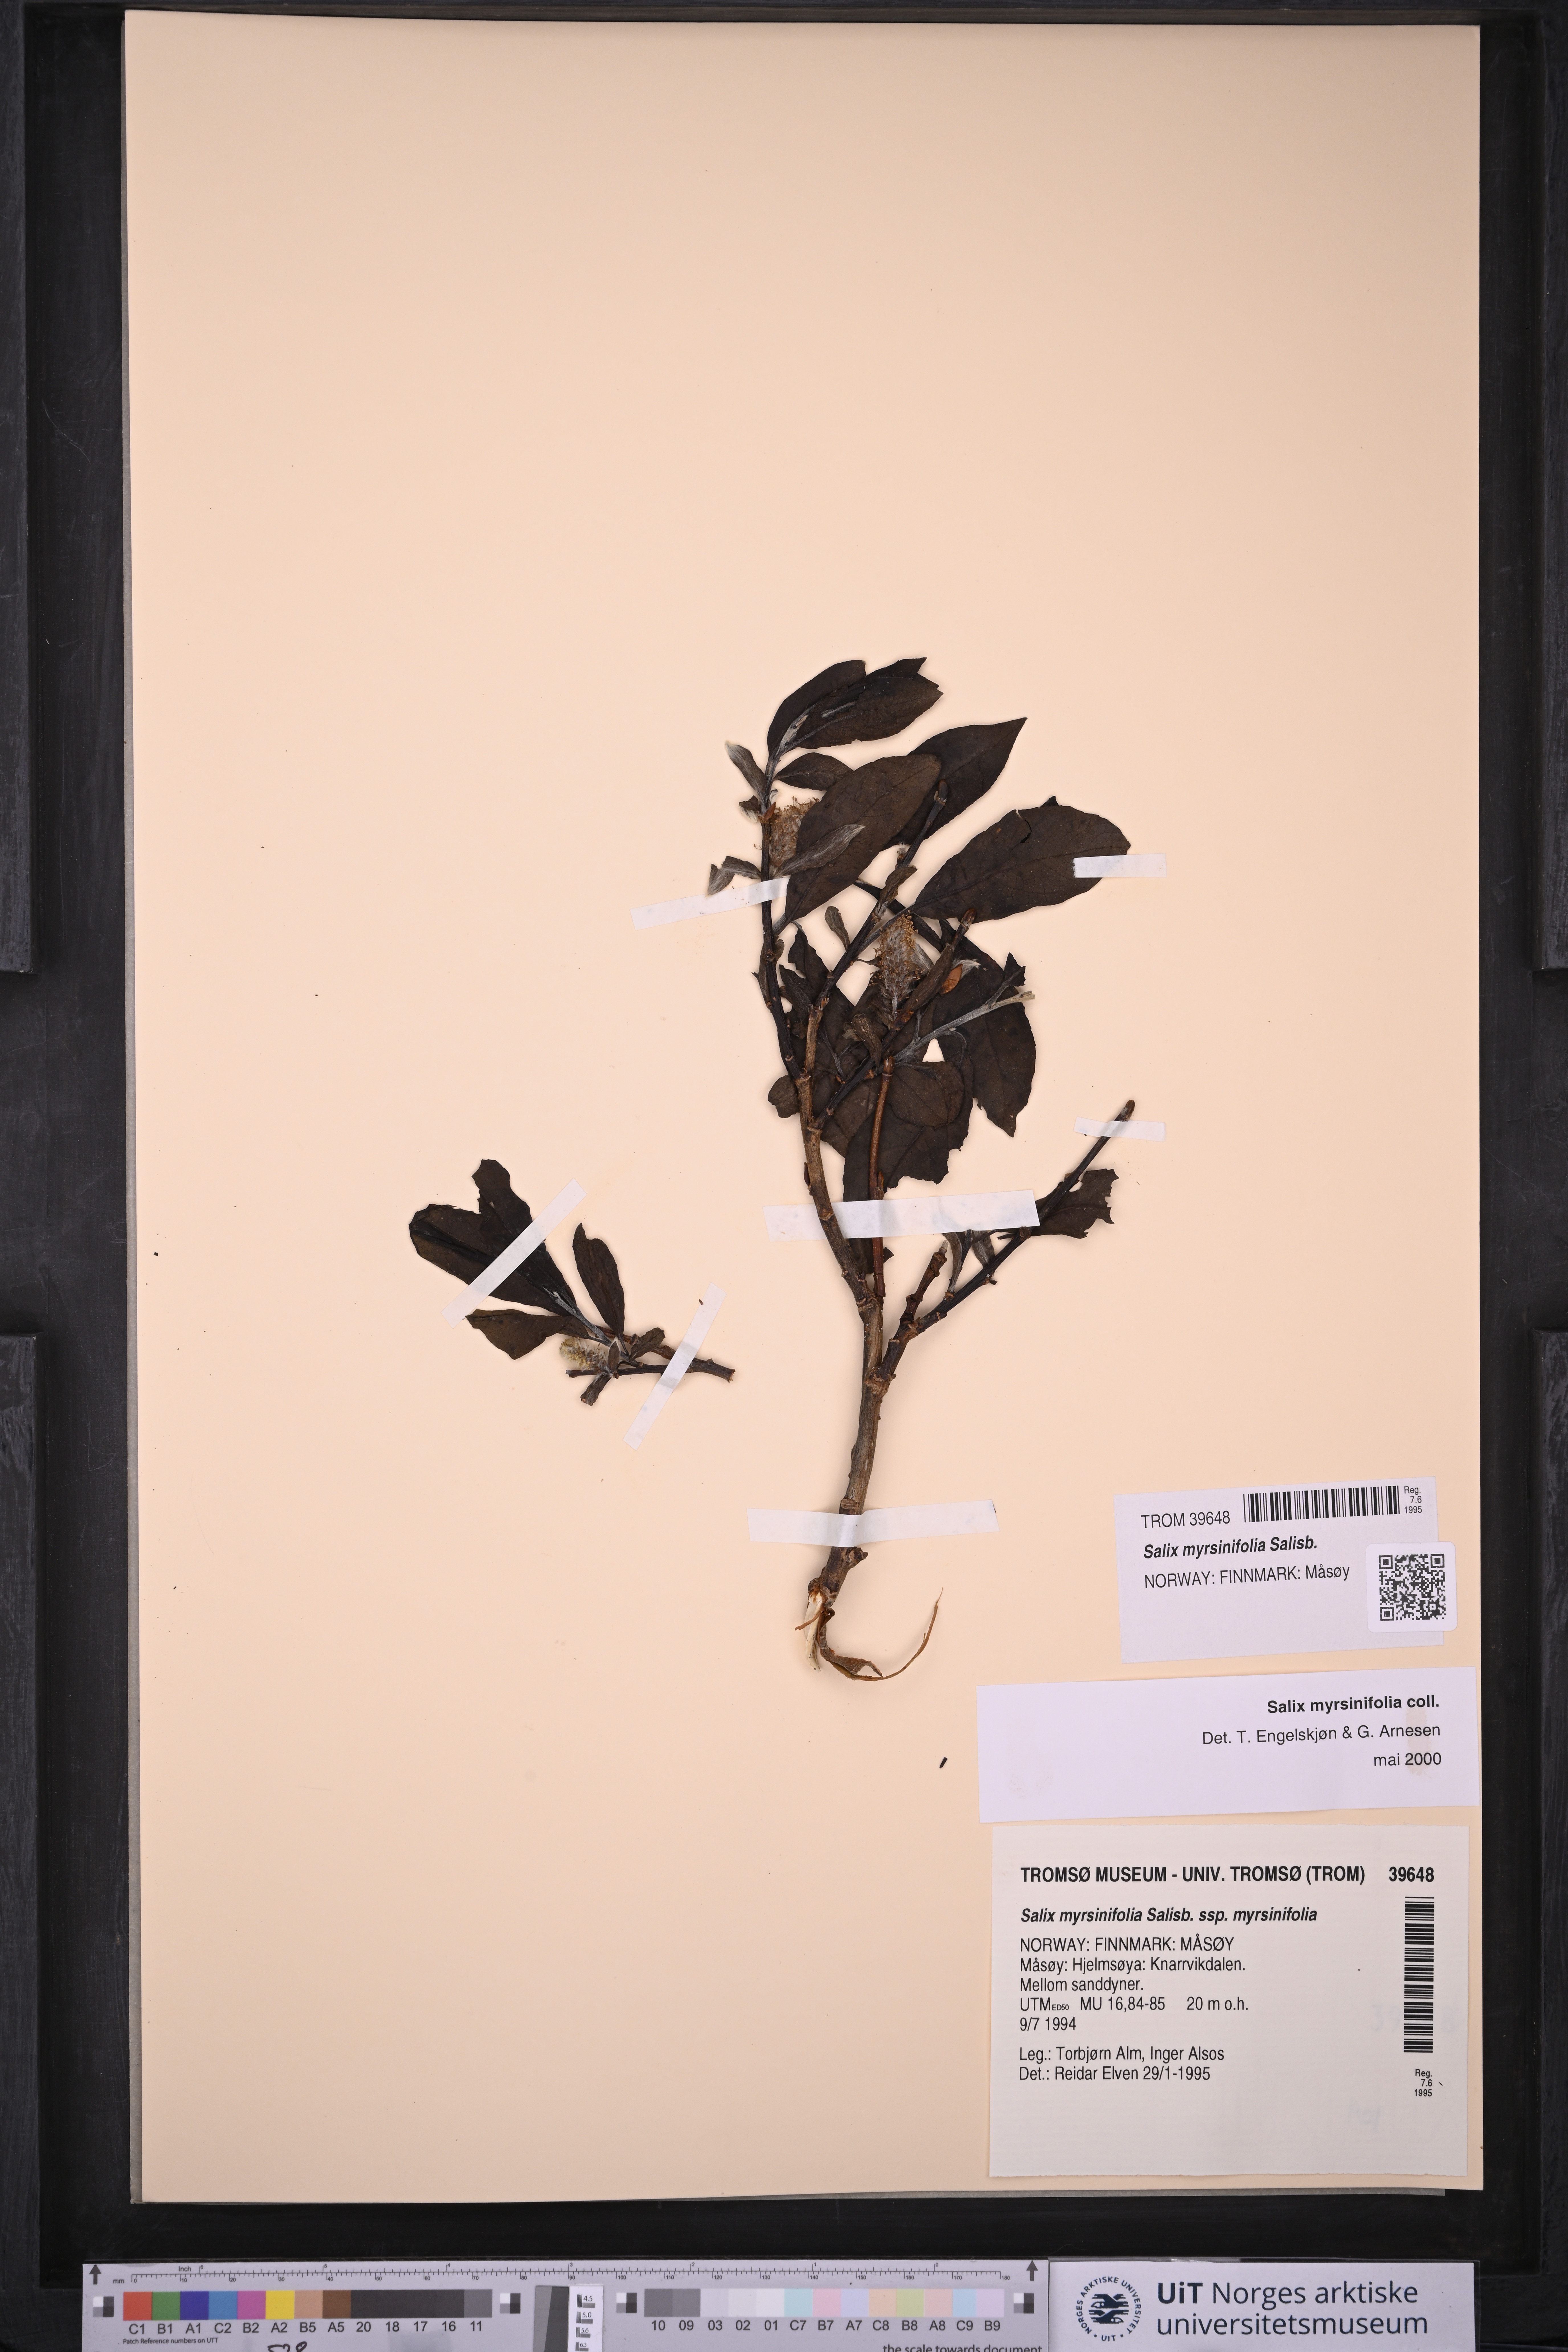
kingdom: Plantae
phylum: Tracheophyta
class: Magnoliopsida
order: Malpighiales
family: Salicaceae
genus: Salix
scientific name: Salix myrsinifolia
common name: Dark-leaved willow
